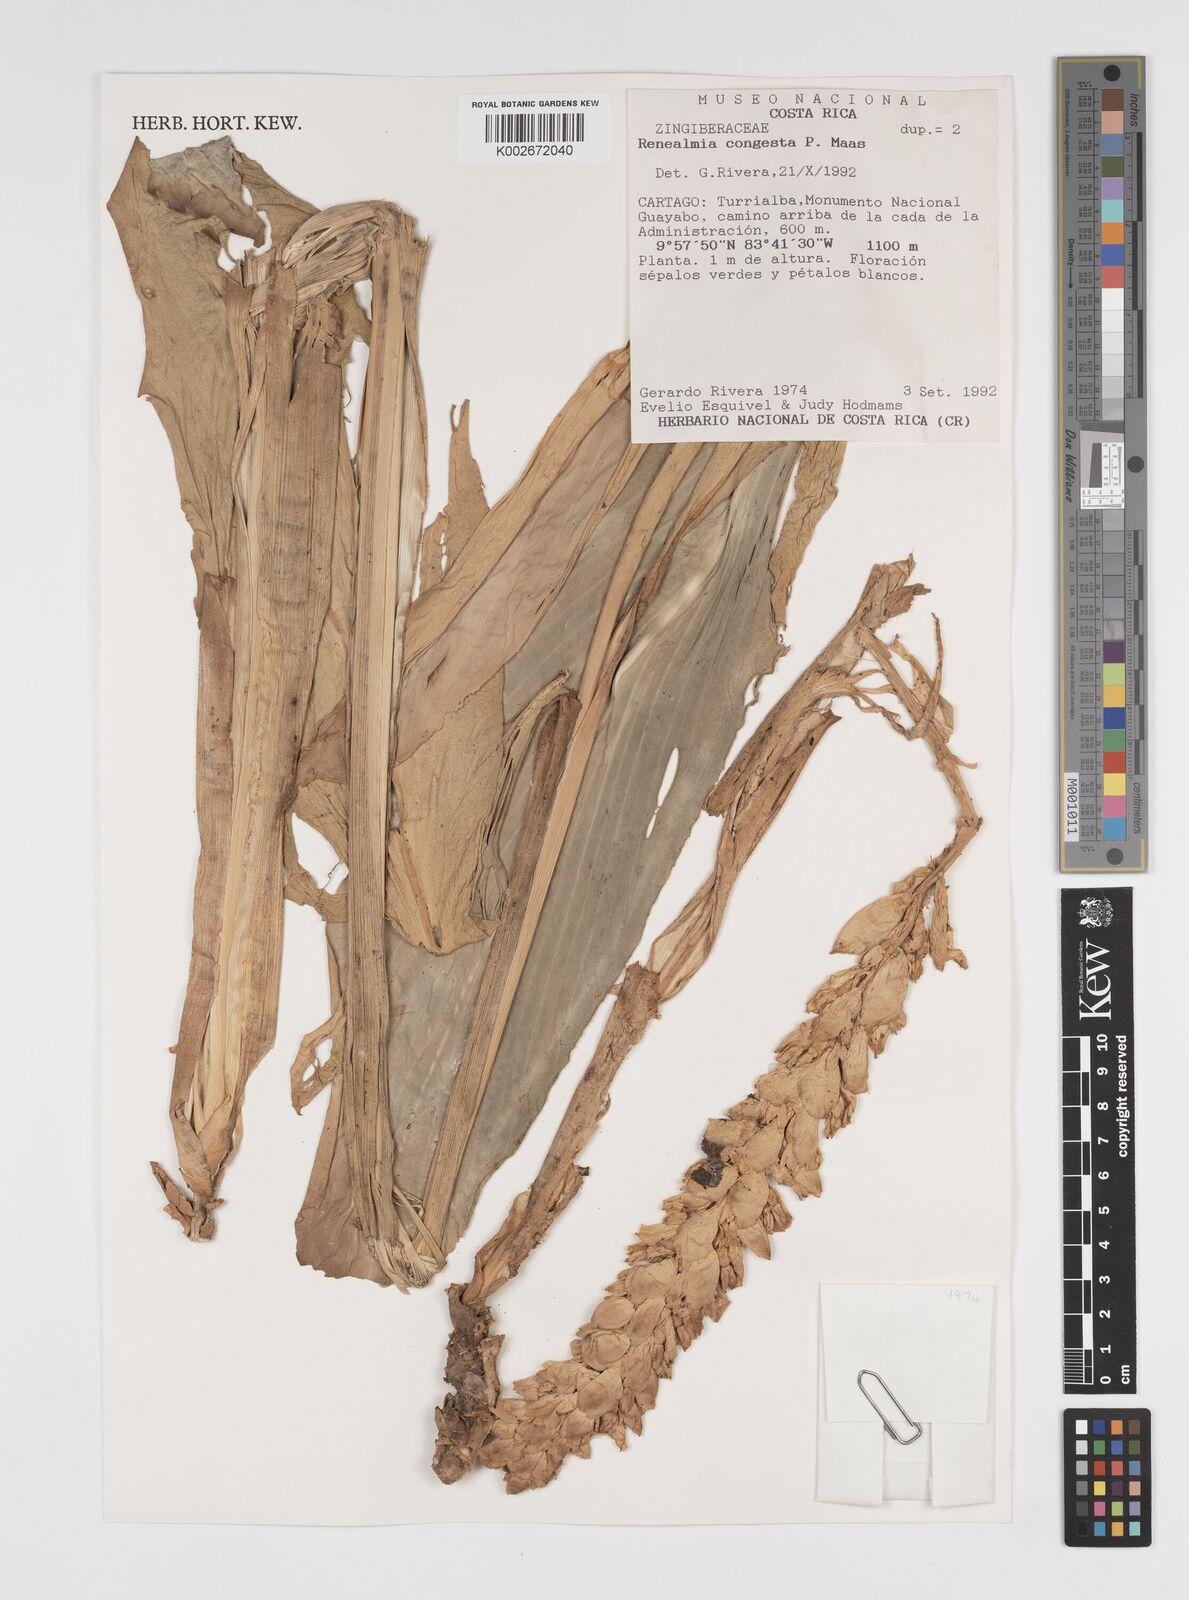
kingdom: Plantae
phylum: Tracheophyta
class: Liliopsida
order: Zingiberales
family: Zingiberaceae
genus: Renealmia
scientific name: Renealmia congesta
